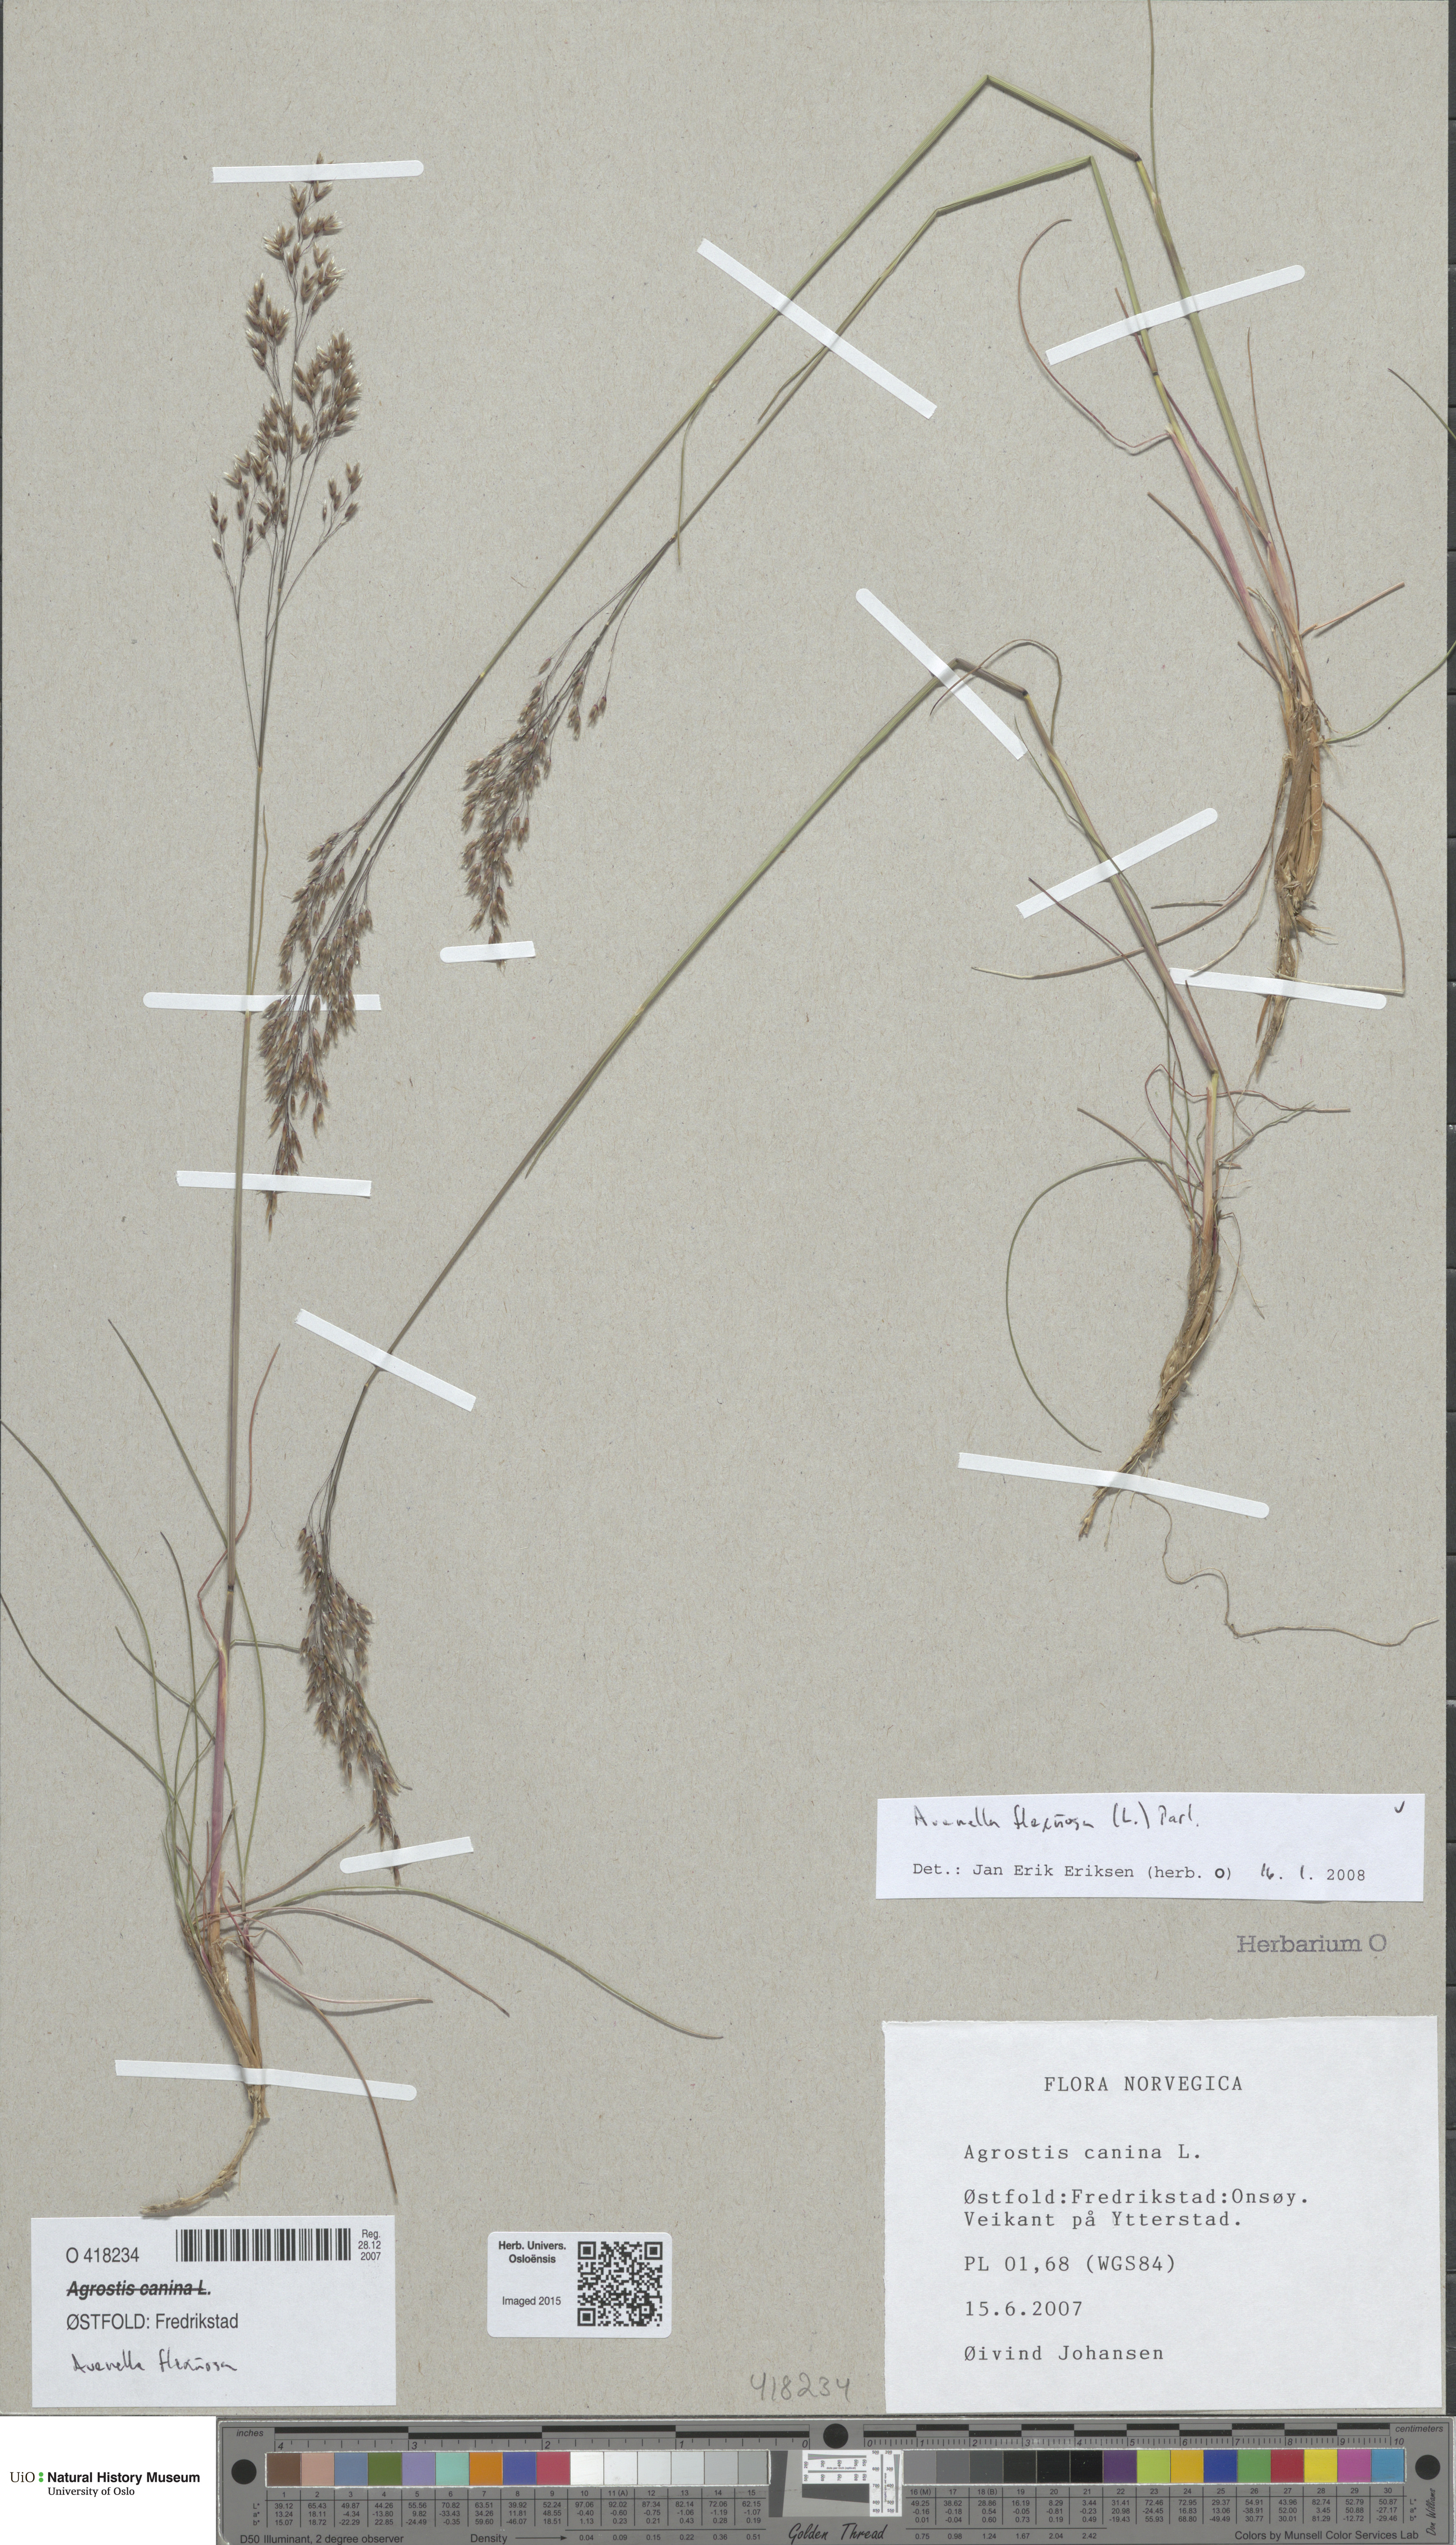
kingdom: Plantae
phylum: Tracheophyta
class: Liliopsida
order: Poales
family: Poaceae
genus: Avenella
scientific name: Avenella flexuosa
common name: Wavy hairgrass
